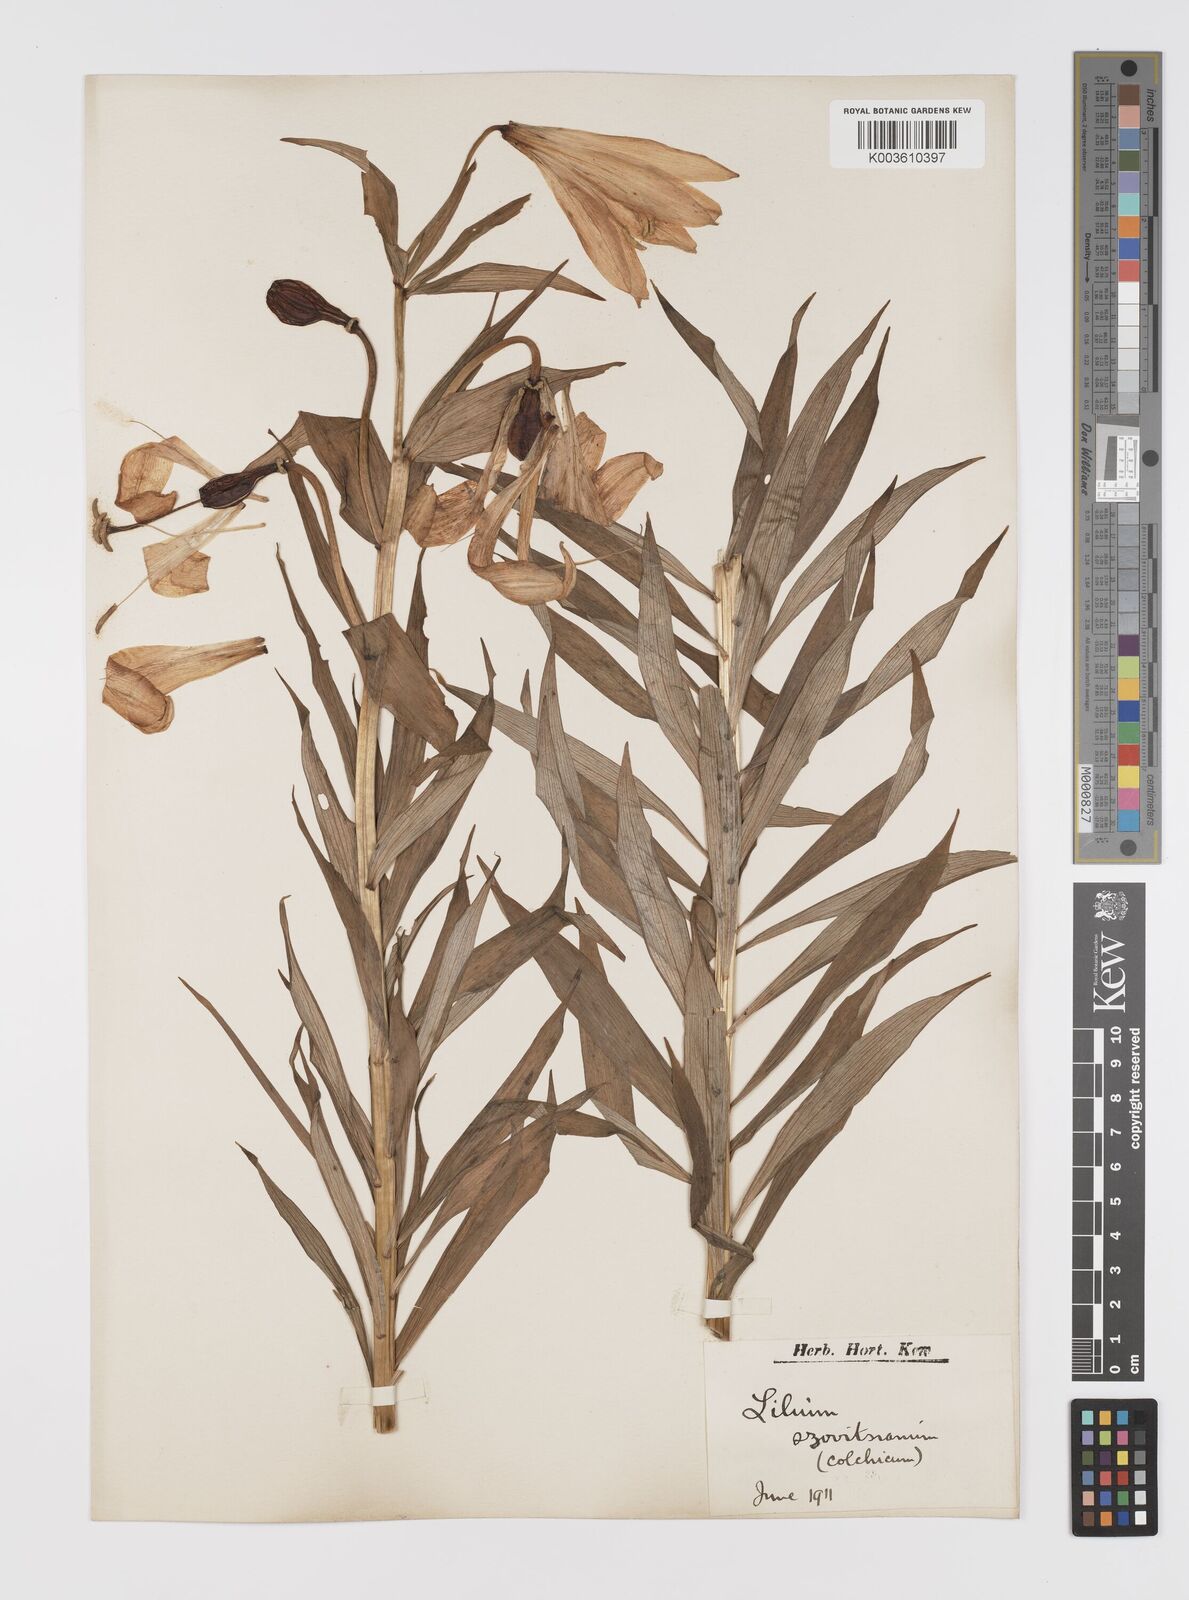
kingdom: Plantae
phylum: Tracheophyta
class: Liliopsida
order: Liliales
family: Liliaceae
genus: Lilium
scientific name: Lilium szovitsianum
